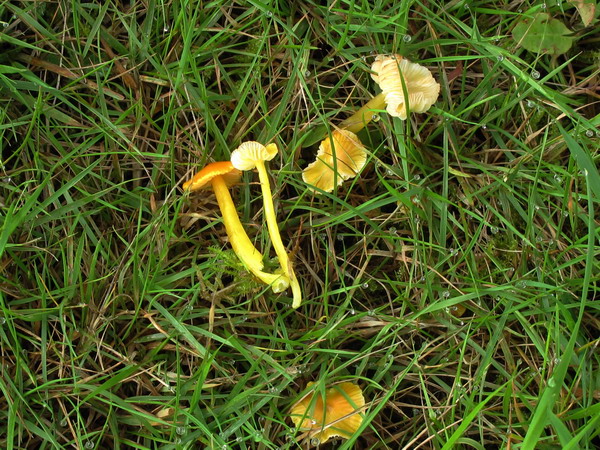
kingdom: Fungi
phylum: Basidiomycota
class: Agaricomycetes
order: Agaricales
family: Hygrophoraceae
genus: Hygrocybe
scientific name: Hygrocybe subpapillata
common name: papil-vokshat
